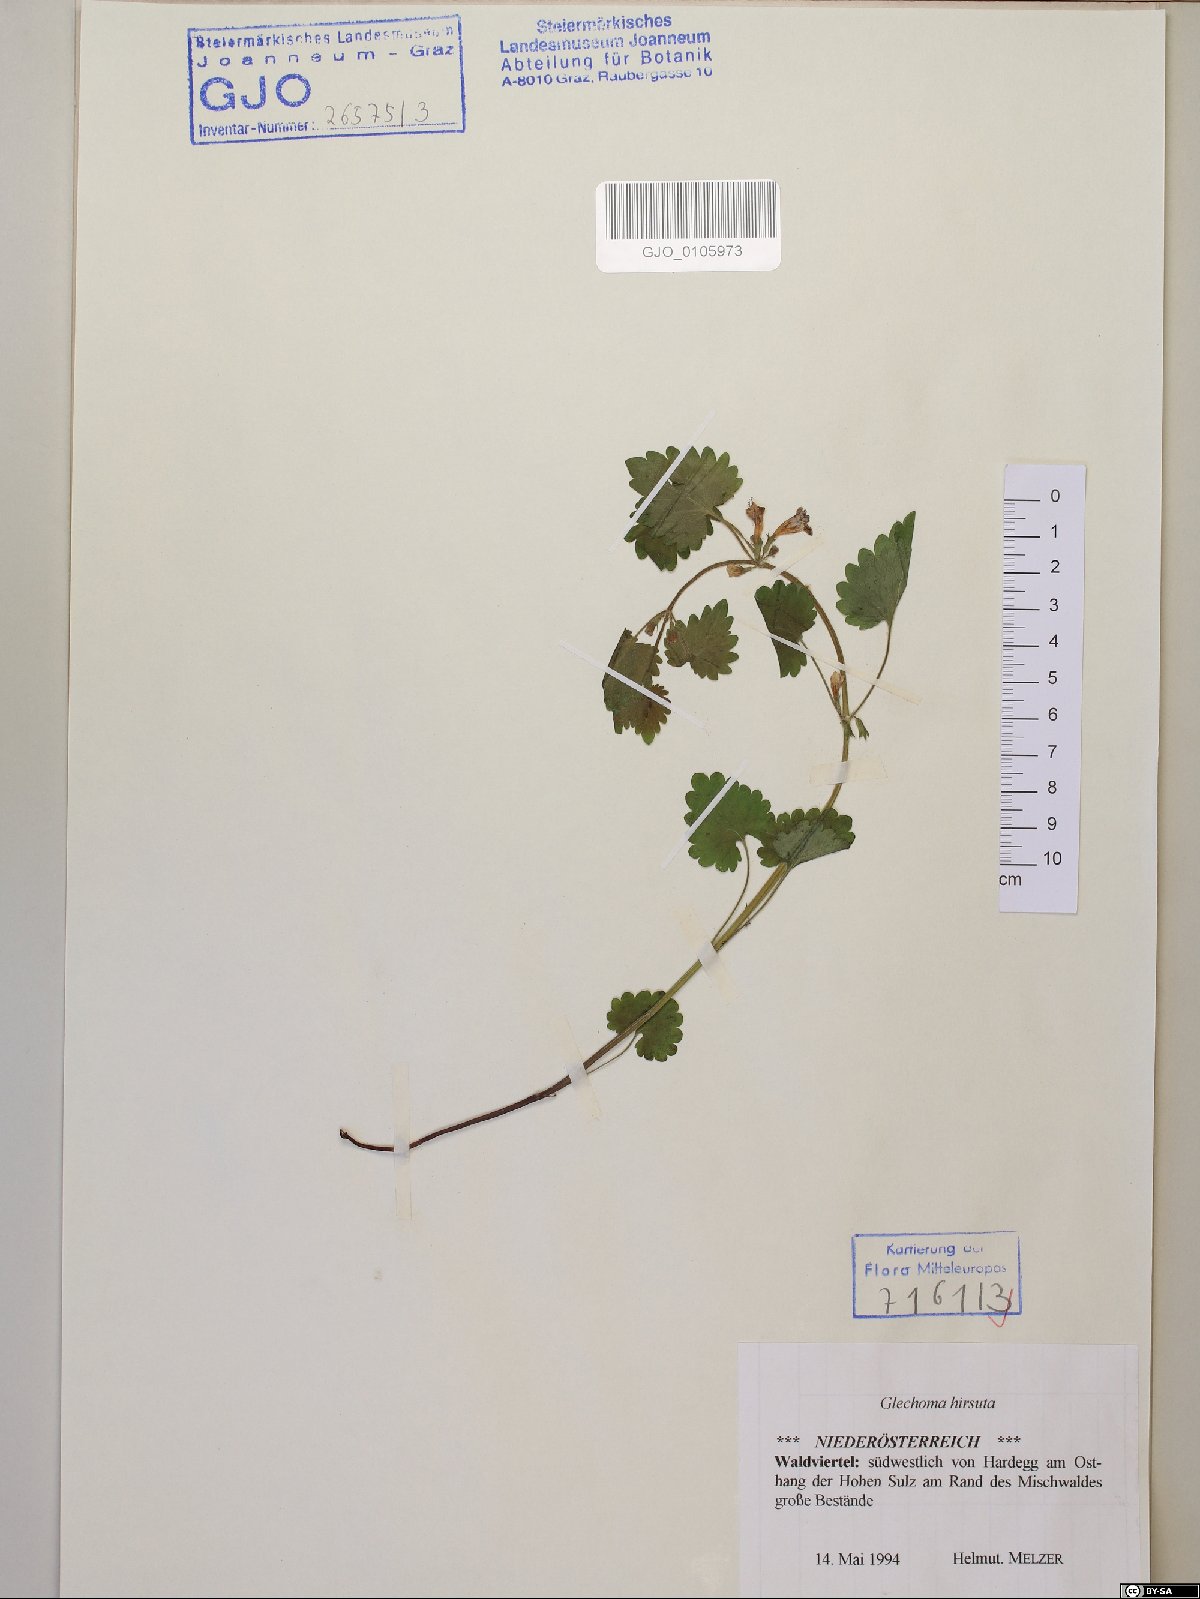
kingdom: Plantae
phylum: Tracheophyta
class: Magnoliopsida
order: Lamiales
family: Lamiaceae
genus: Glechoma
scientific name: Glechoma hirsuta
